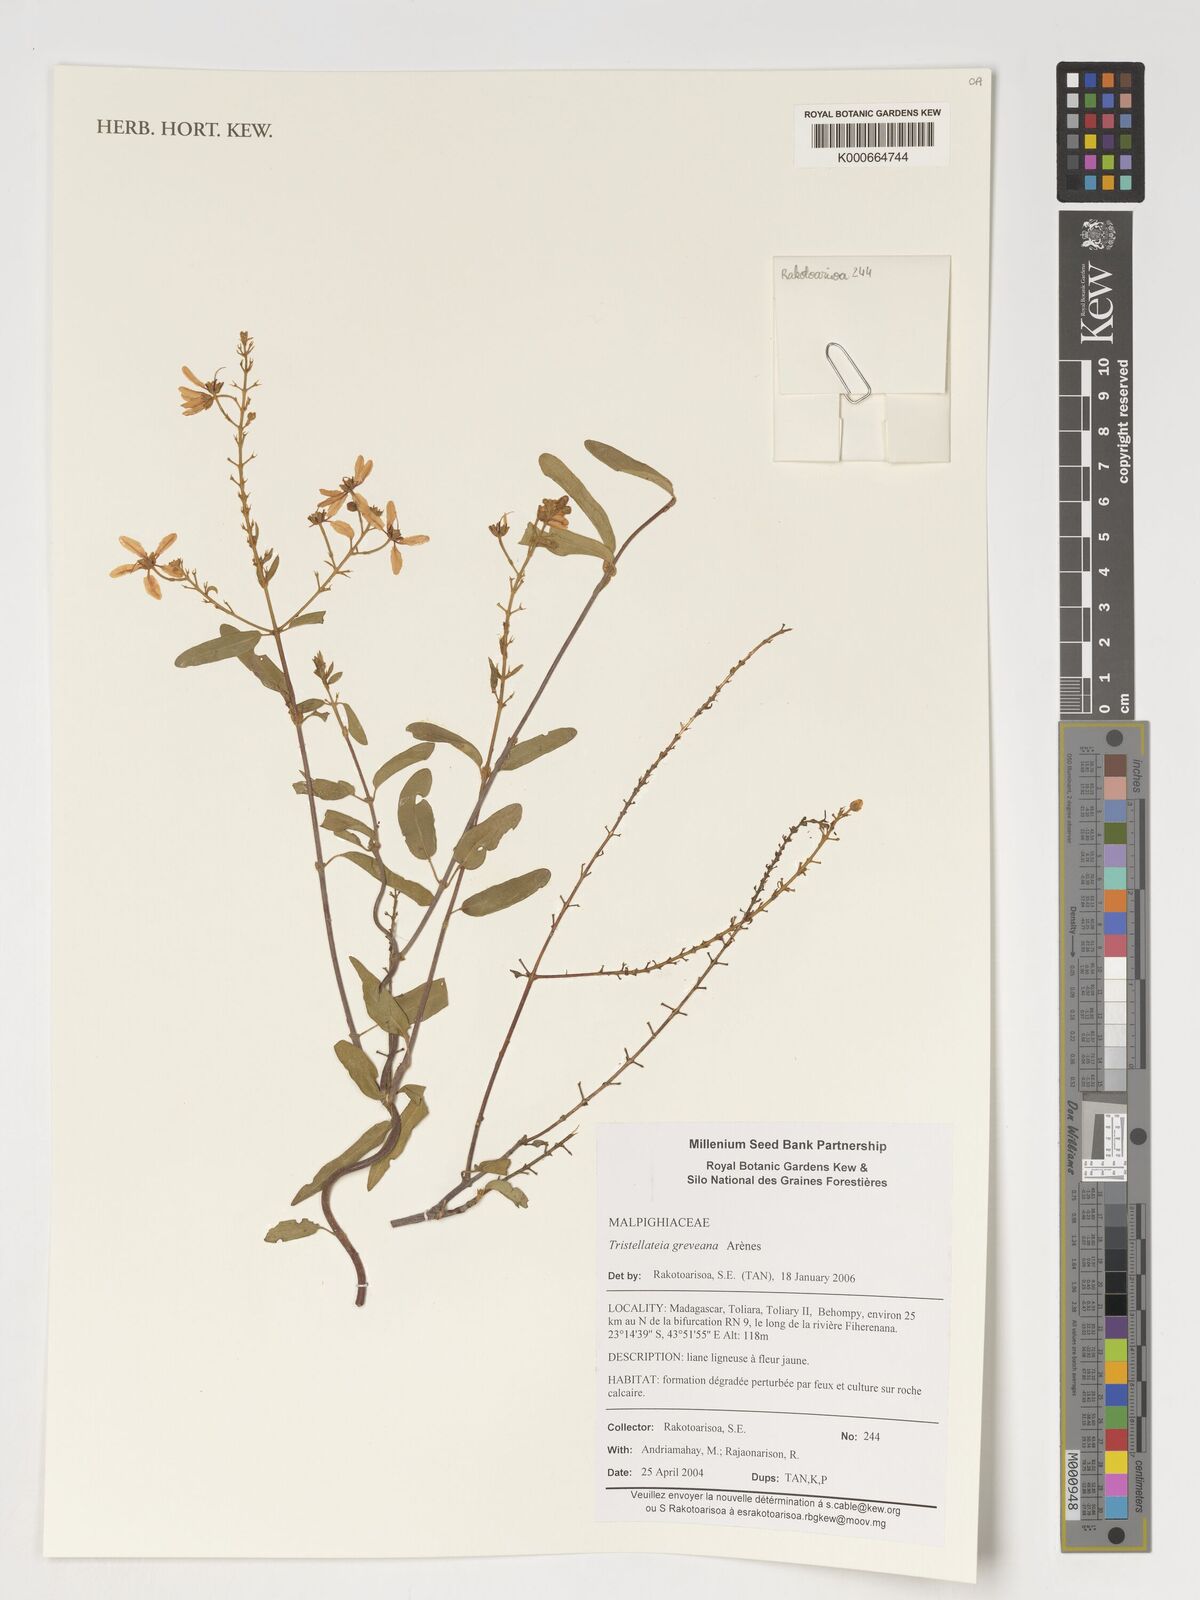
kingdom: Plantae
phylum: Tracheophyta
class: Magnoliopsida
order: Malpighiales
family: Malpighiaceae
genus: Tristellateia
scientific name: Tristellateia greveana
